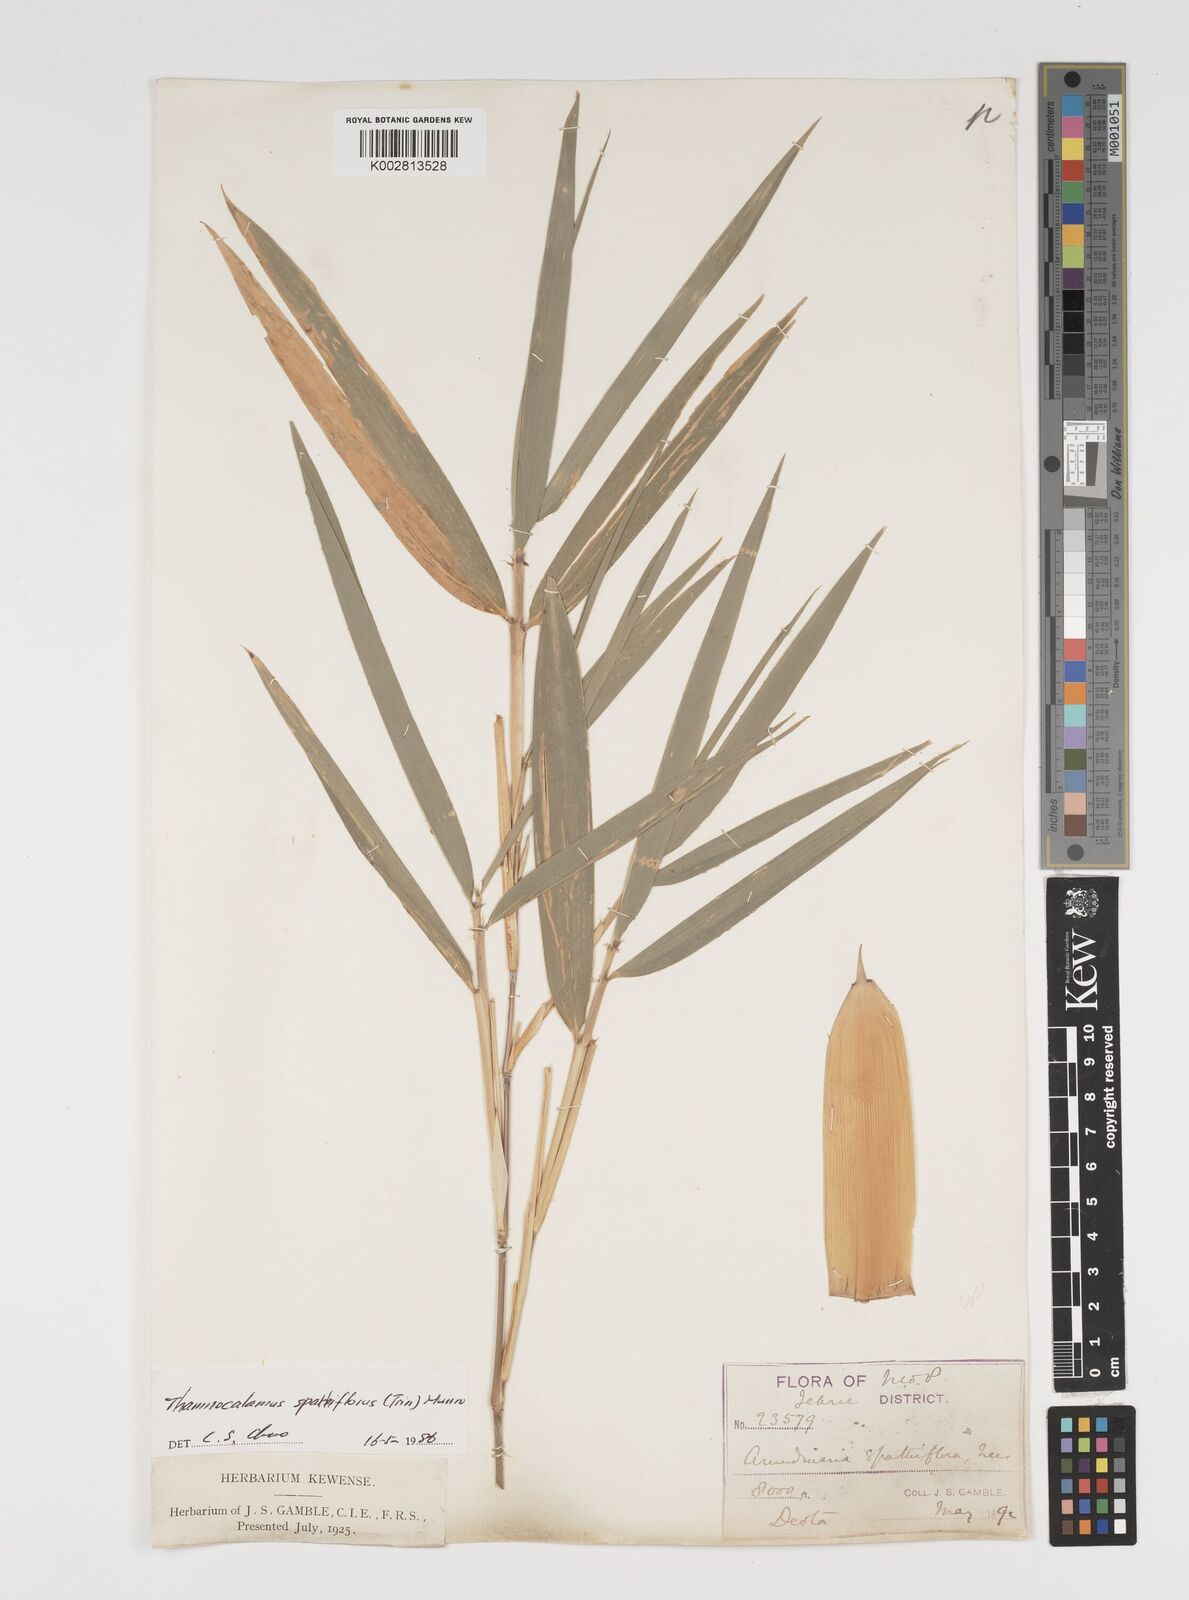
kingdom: Plantae
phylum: Tracheophyta
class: Liliopsida
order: Poales
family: Poaceae
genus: Thamnocalamus
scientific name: Thamnocalamus spathiflorus
